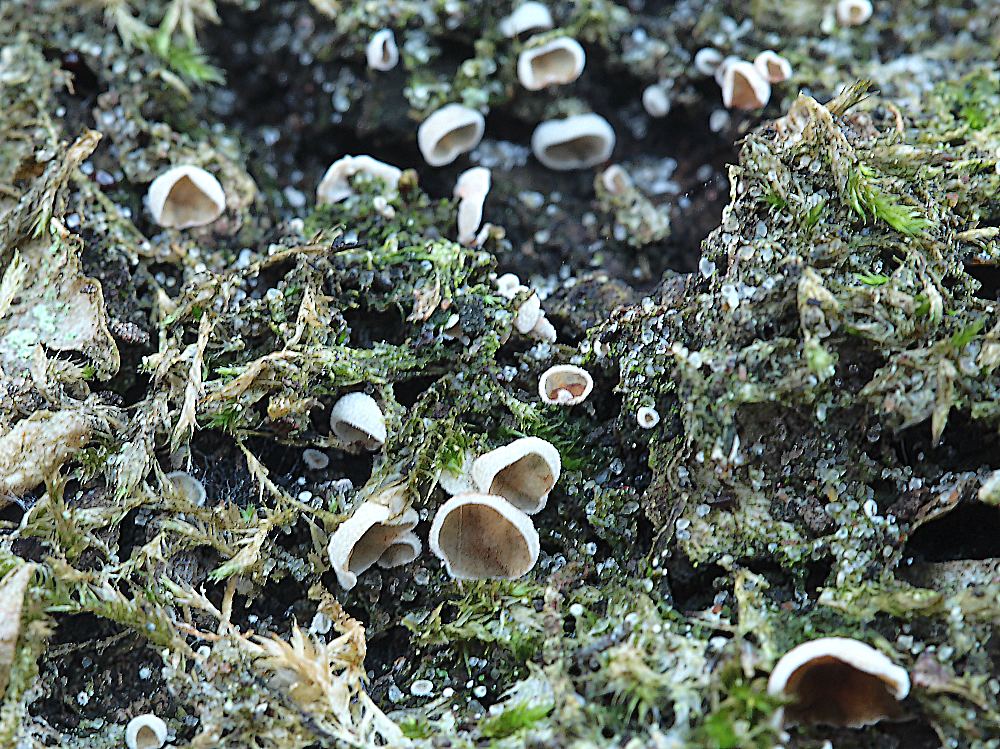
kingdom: Fungi
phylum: Basidiomycota
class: Agaricomycetes
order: Agaricales
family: Chromocyphellaceae
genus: Chromocyphella
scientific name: Chromocyphella muscicola
